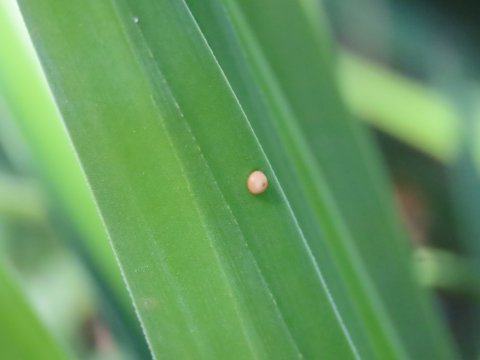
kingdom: Animalia
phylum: Arthropoda
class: Insecta
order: Lepidoptera
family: Hesperiidae
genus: Megathymus
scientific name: Megathymus yuccae
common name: Yucca Giant-Skipper
